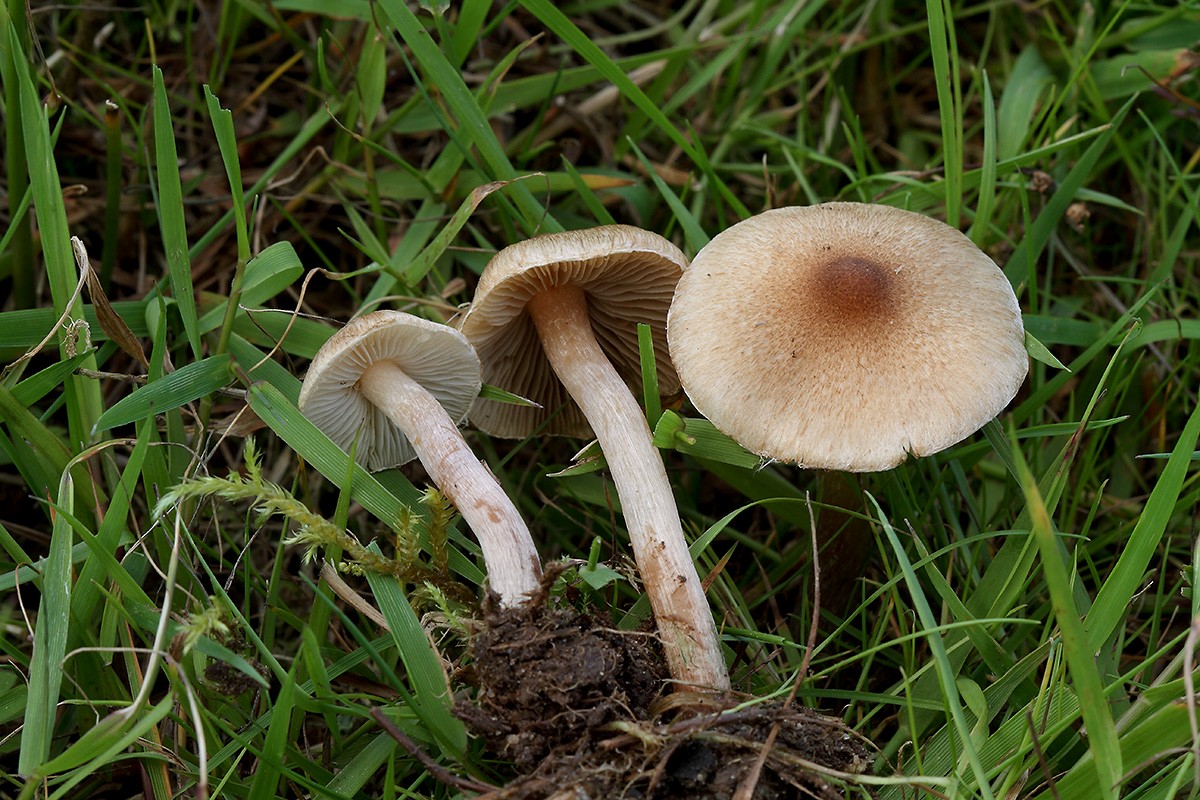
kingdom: Fungi
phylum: Basidiomycota
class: Agaricomycetes
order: Agaricales
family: Inocybaceae
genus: Inocybe
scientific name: Inocybe curvipes
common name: plæne-trævlhat
